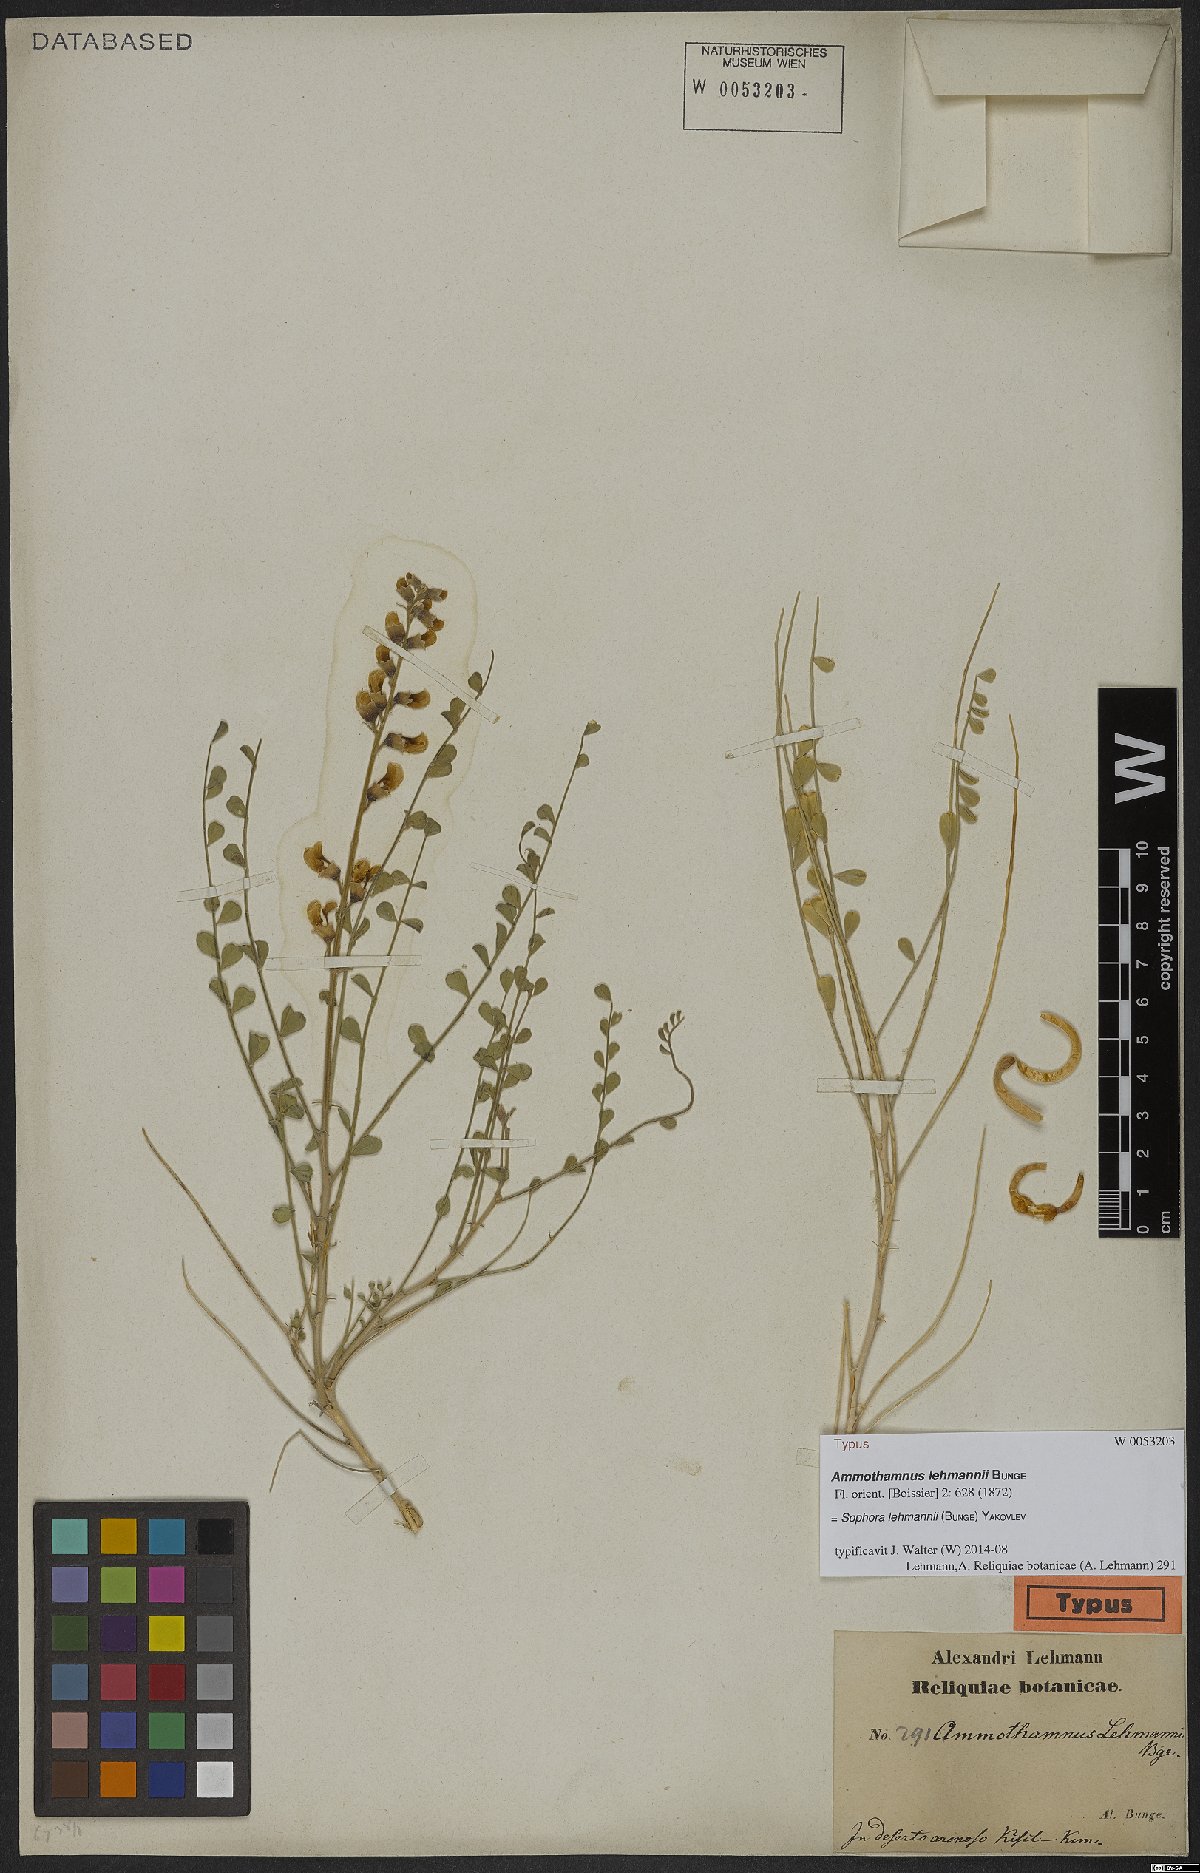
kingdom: Plantae
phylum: Tracheophyta
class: Magnoliopsida
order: Fabales
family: Fabaceae
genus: Sophora
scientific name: Sophora lehmannii
